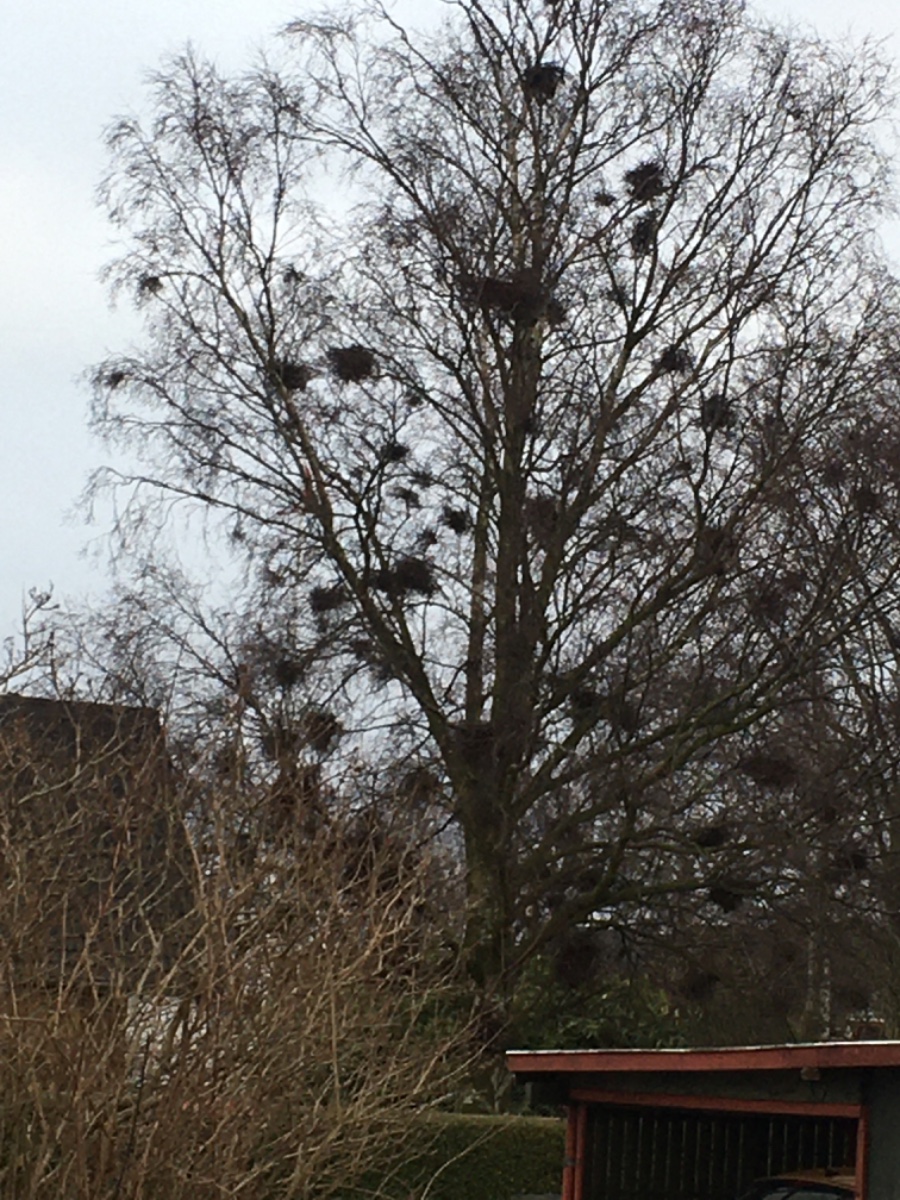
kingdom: Fungi
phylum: Ascomycota
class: Taphrinomycetes
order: Taphrinales
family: Taphrinaceae
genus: Taphrina
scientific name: Taphrina betulina
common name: hekse-sækdug
